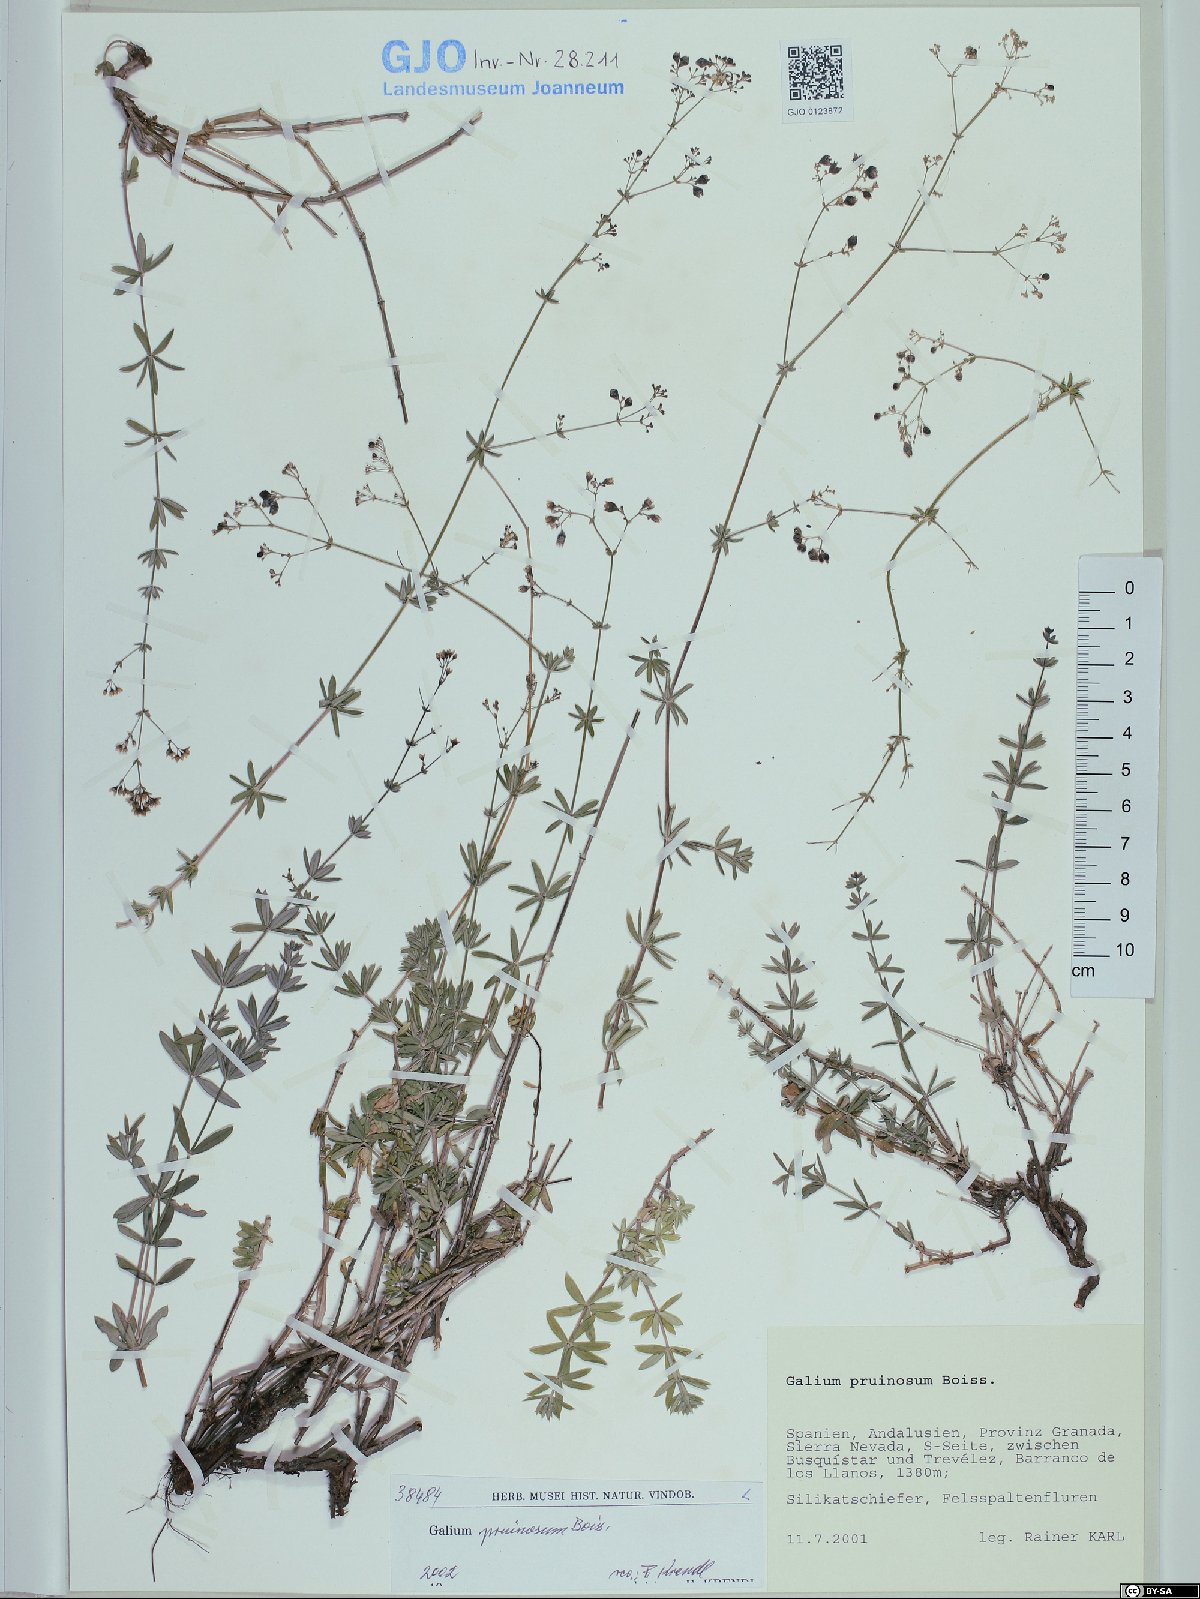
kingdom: Plantae
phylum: Tracheophyta
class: Magnoliopsida
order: Gentianales
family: Rubiaceae
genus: Galium
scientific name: Galium pruinosum
